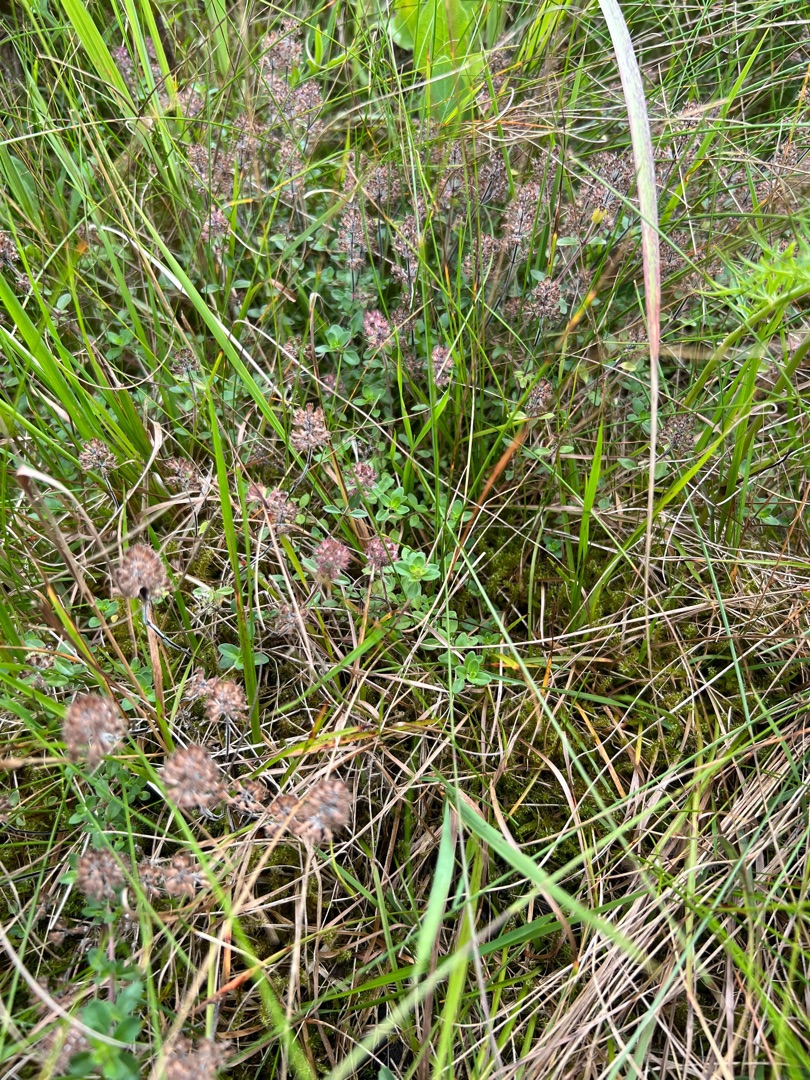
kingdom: Plantae
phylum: Tracheophyta
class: Magnoliopsida
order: Lamiales
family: Lamiaceae
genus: Thymus
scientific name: Thymus pulegioides
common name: Bredbladet timian
